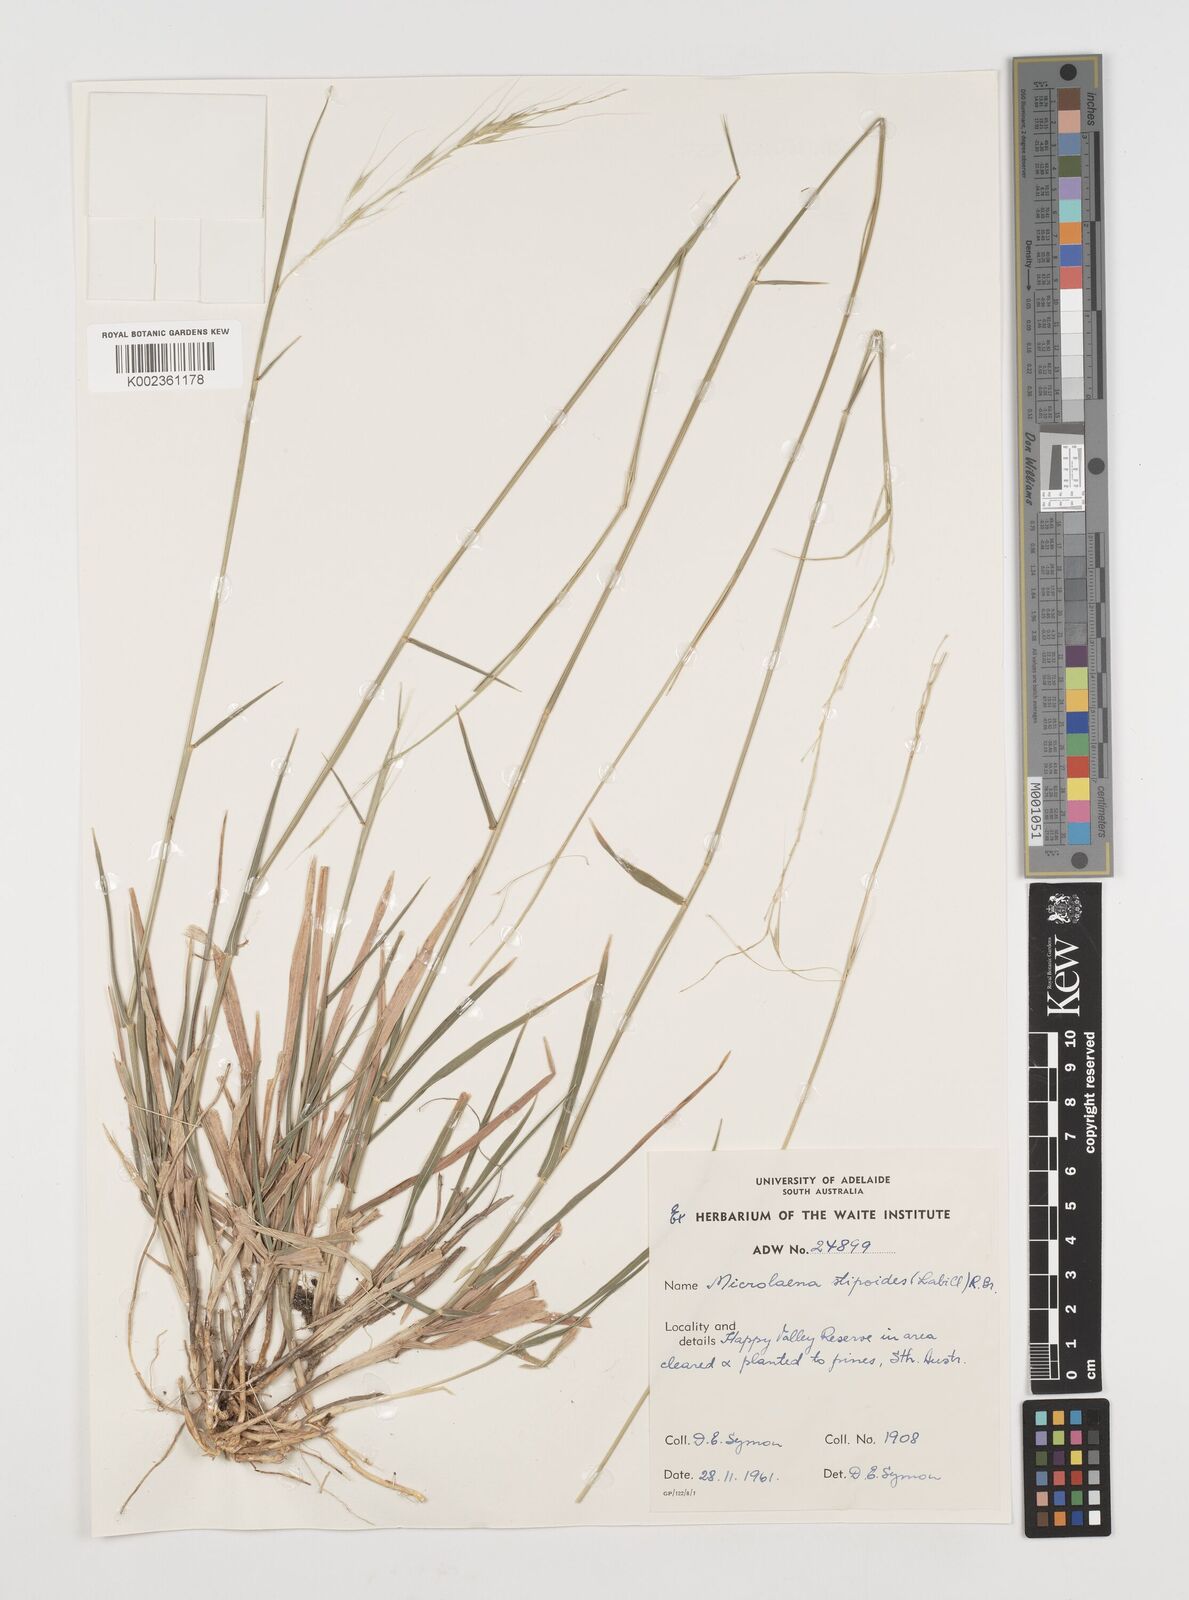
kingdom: Plantae
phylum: Tracheophyta
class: Liliopsida
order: Poales
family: Poaceae
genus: Microlaena
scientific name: Microlaena stipoides
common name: Meadow ricegrass
